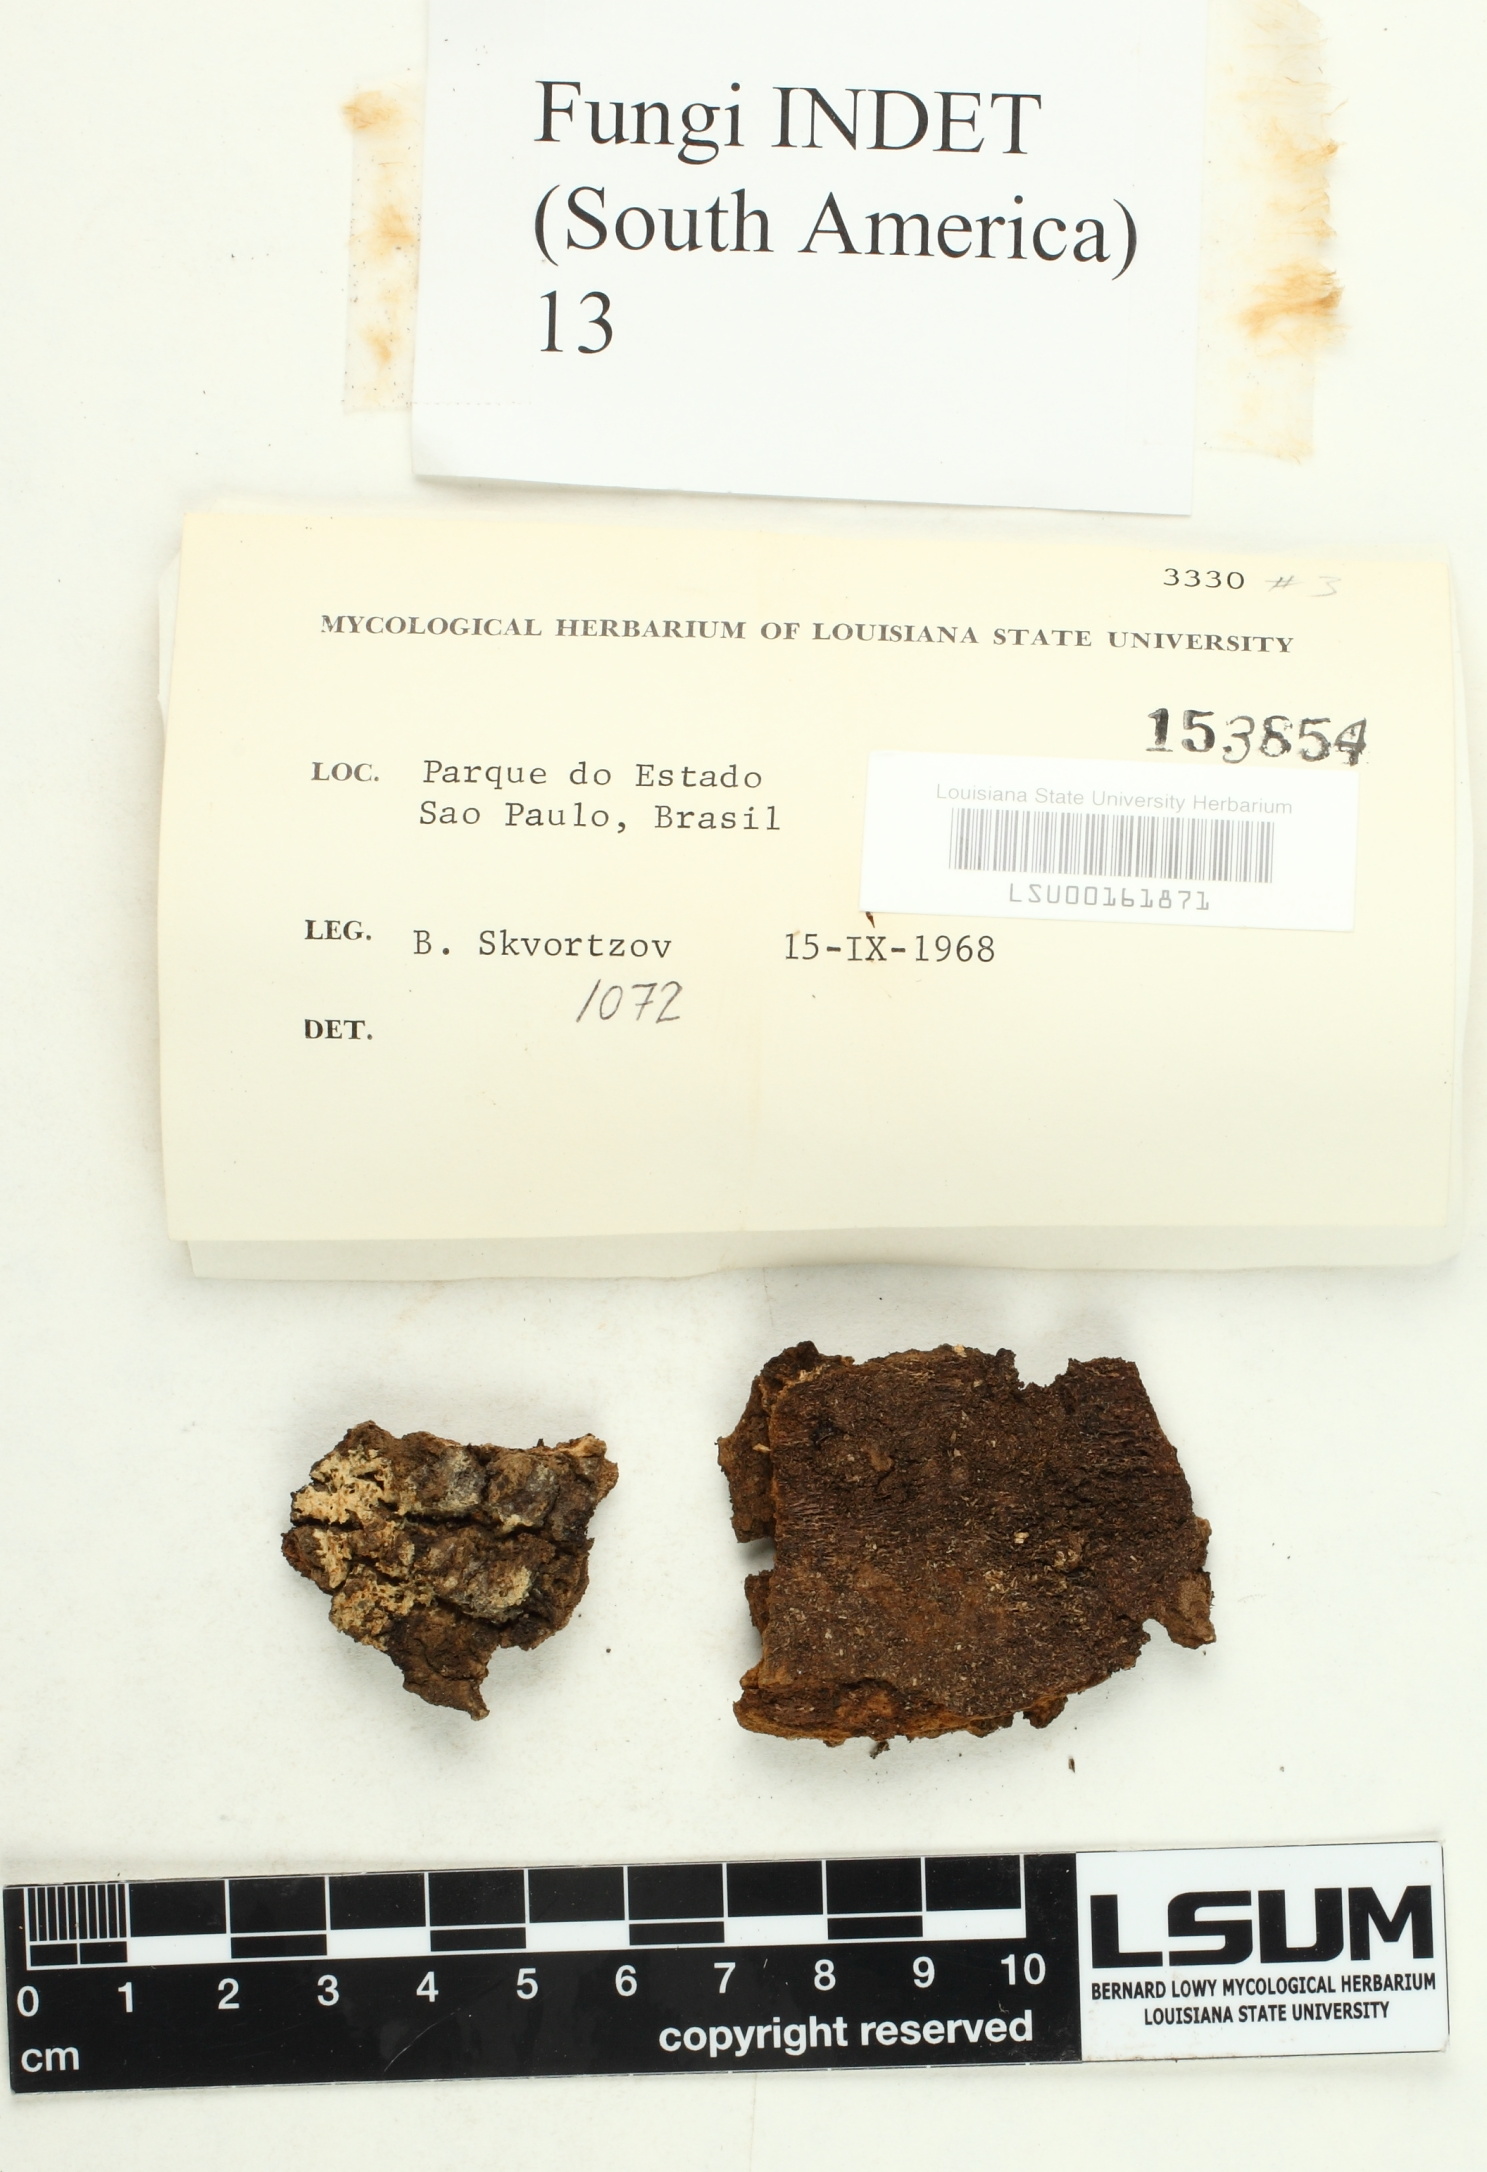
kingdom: Fungi
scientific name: Fungi
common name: Fungi
